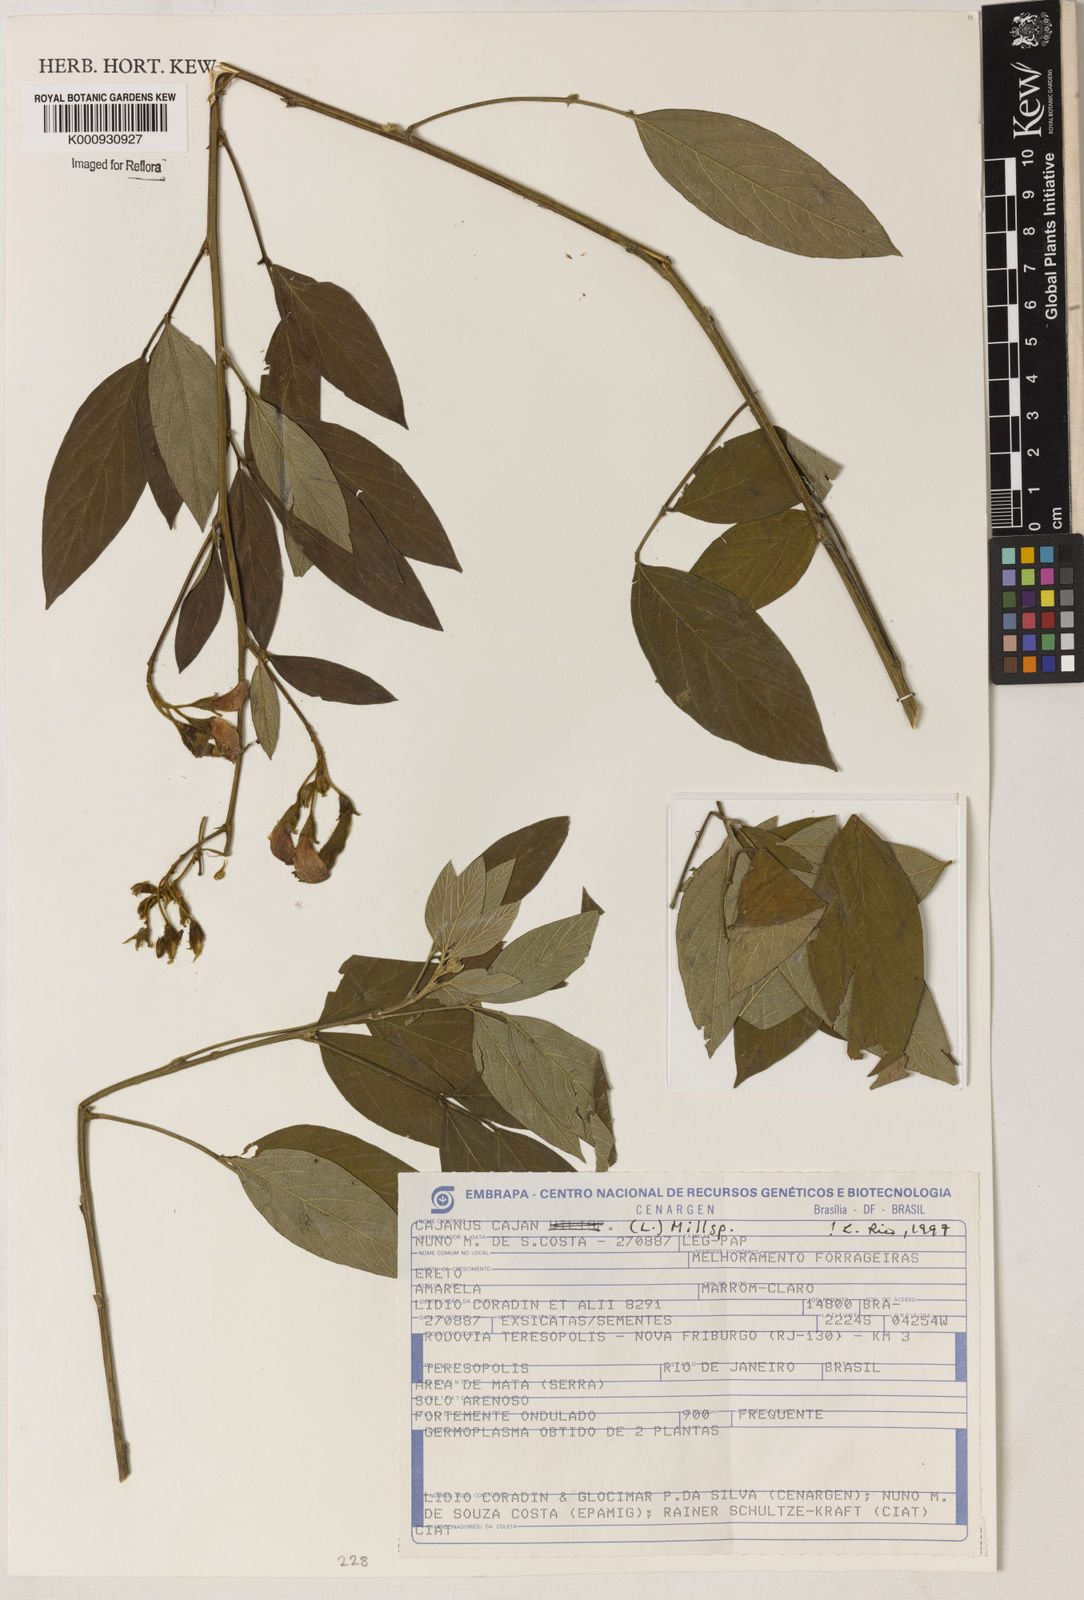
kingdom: Plantae
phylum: Tracheophyta
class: Magnoliopsida
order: Fabales
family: Fabaceae
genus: Cajanus
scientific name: Cajanus
